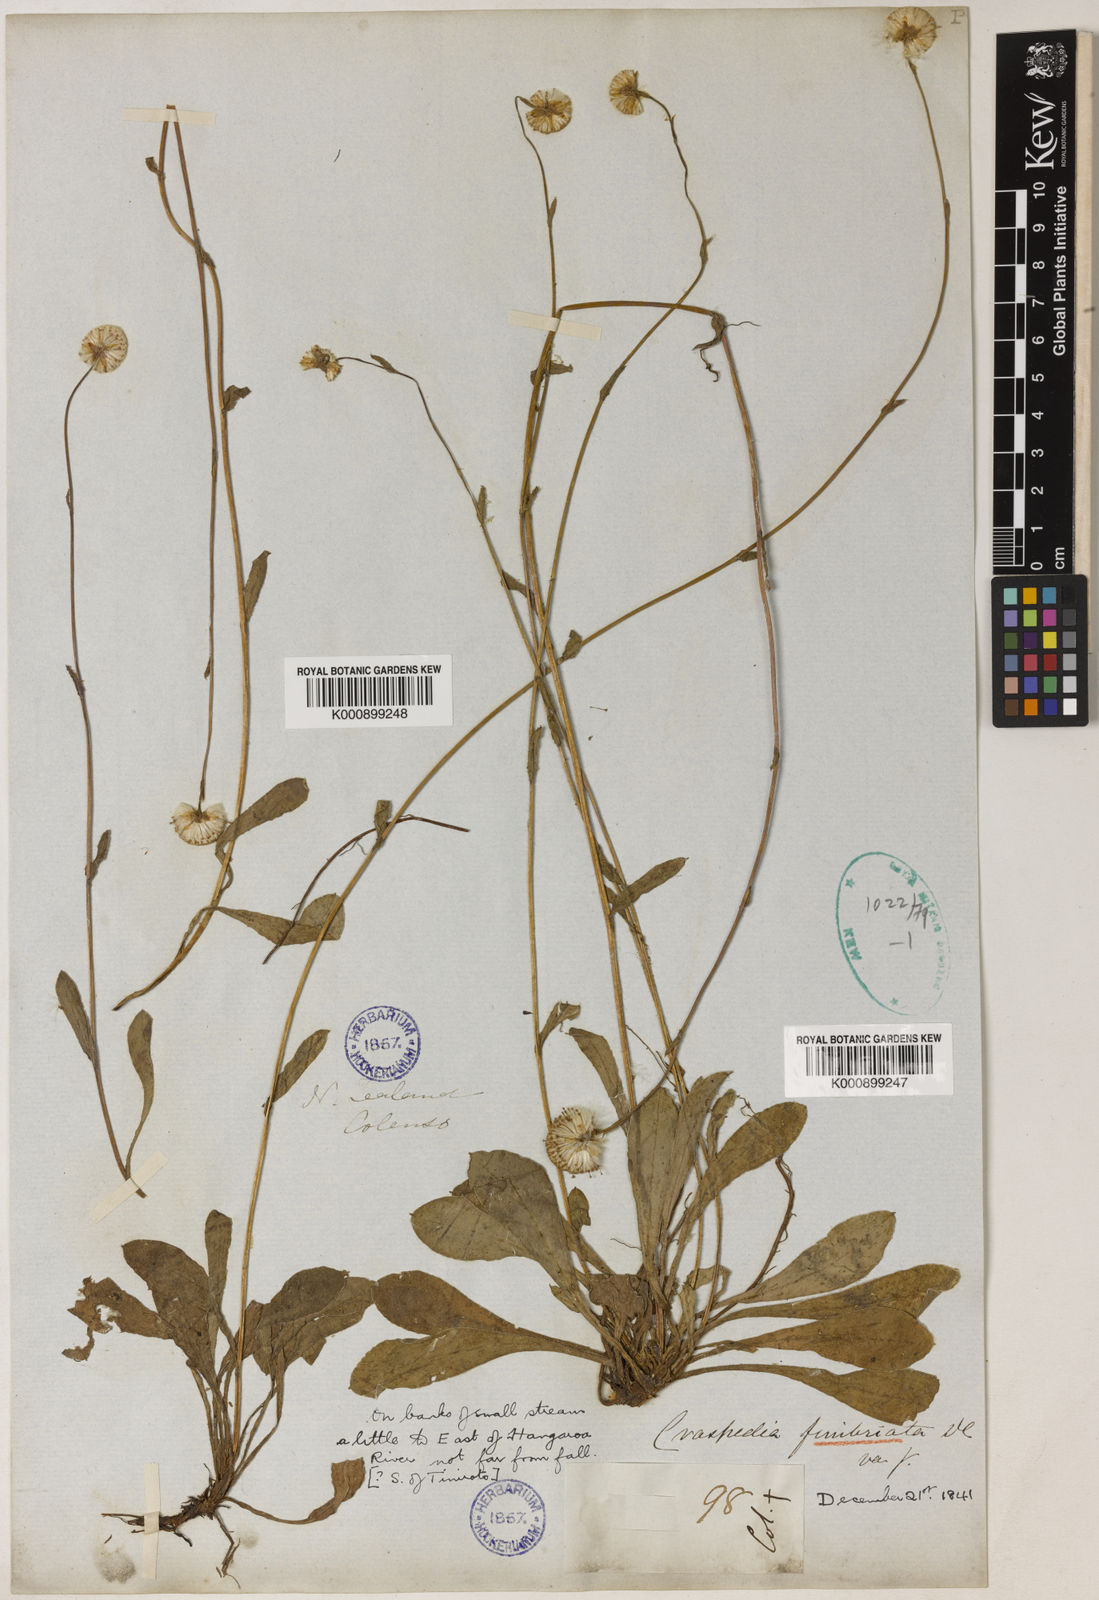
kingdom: Plantae
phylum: Tracheophyta
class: Magnoliopsida
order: Asterales
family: Asteraceae
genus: Craspedia
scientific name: Craspedia uniflora
